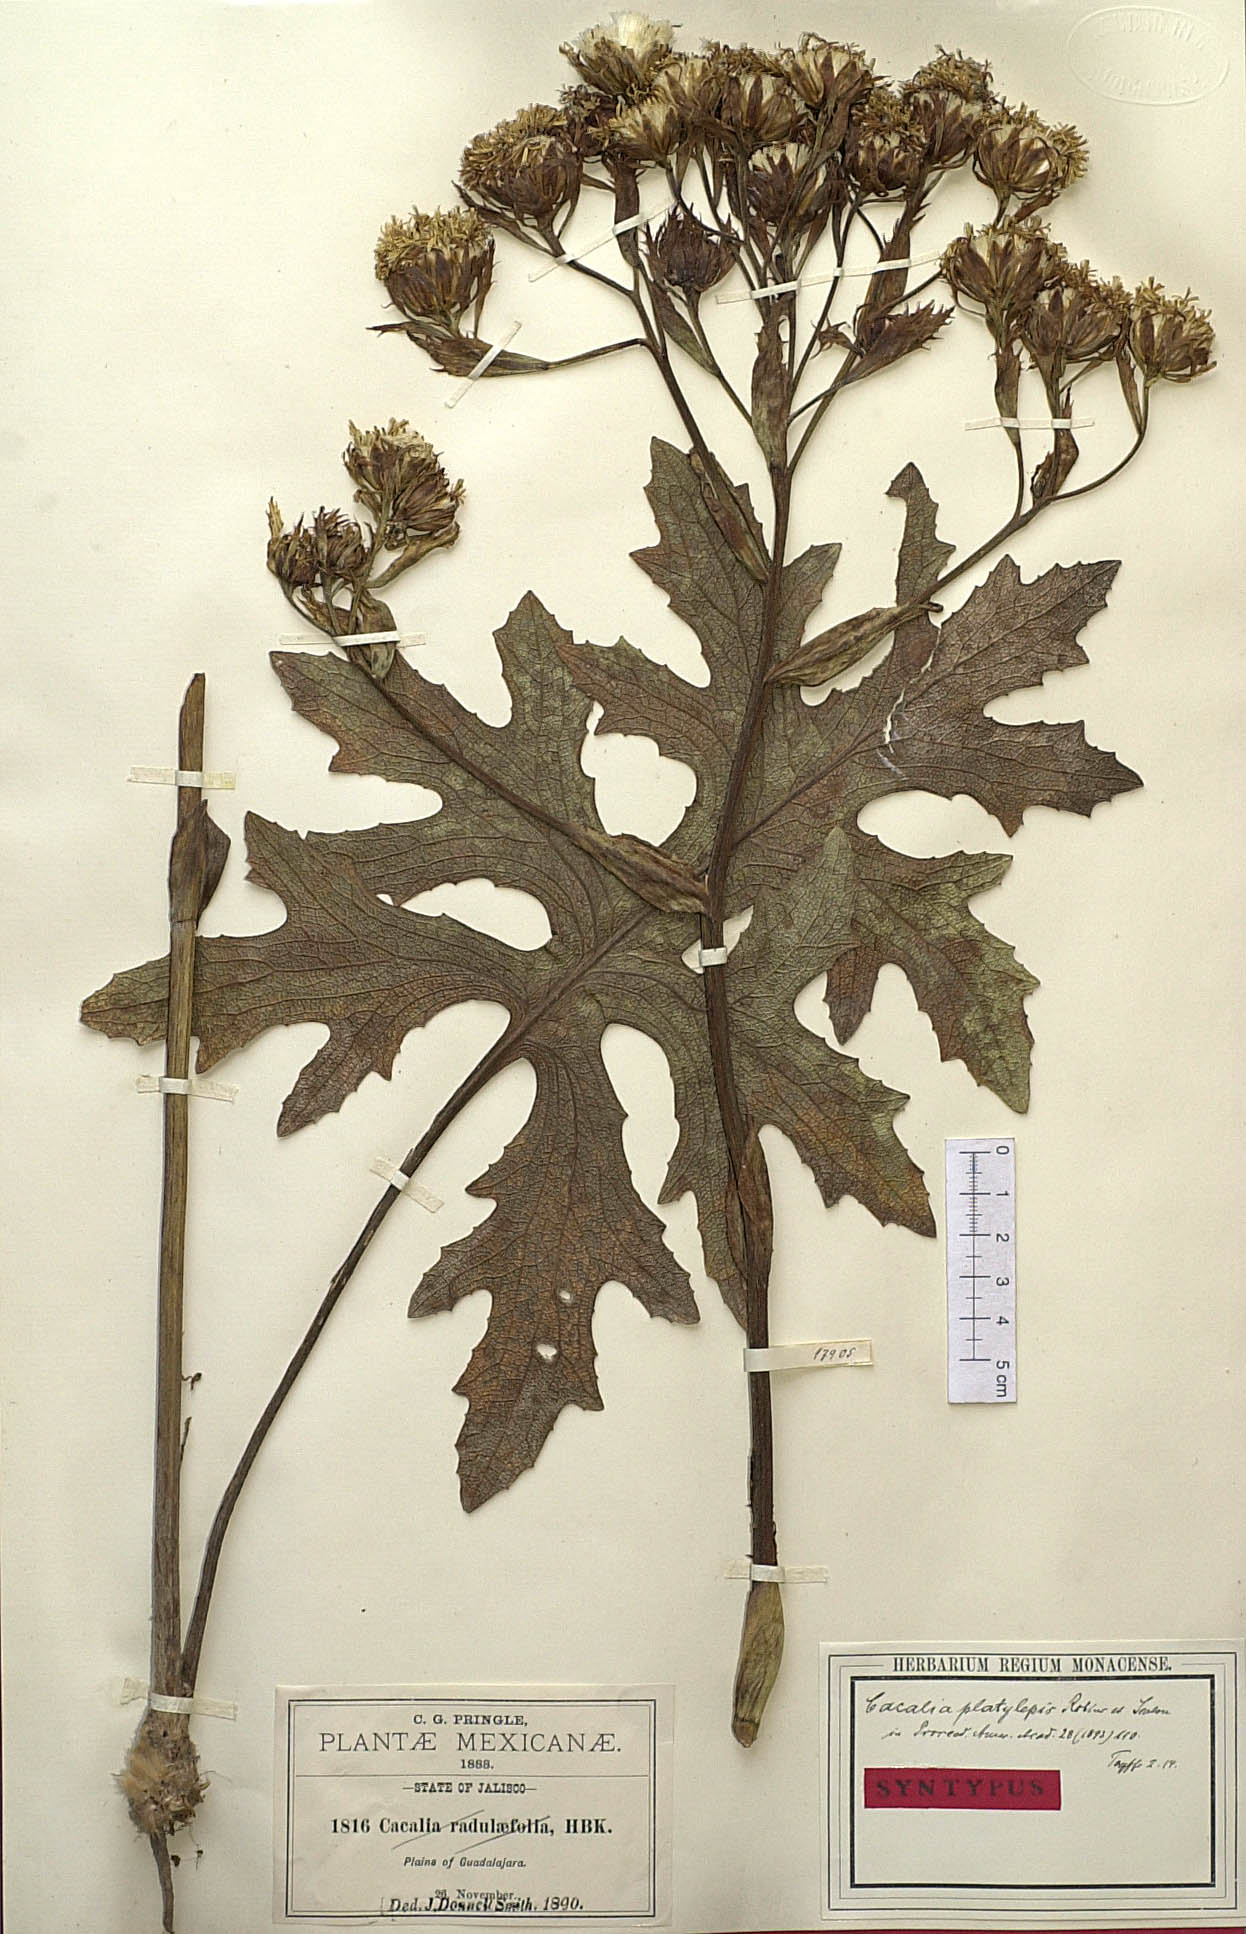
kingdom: Plantae
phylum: Tracheophyta
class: Magnoliopsida
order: Asterales
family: Asteraceae
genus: Psacalium
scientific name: Psacalium platylepis
